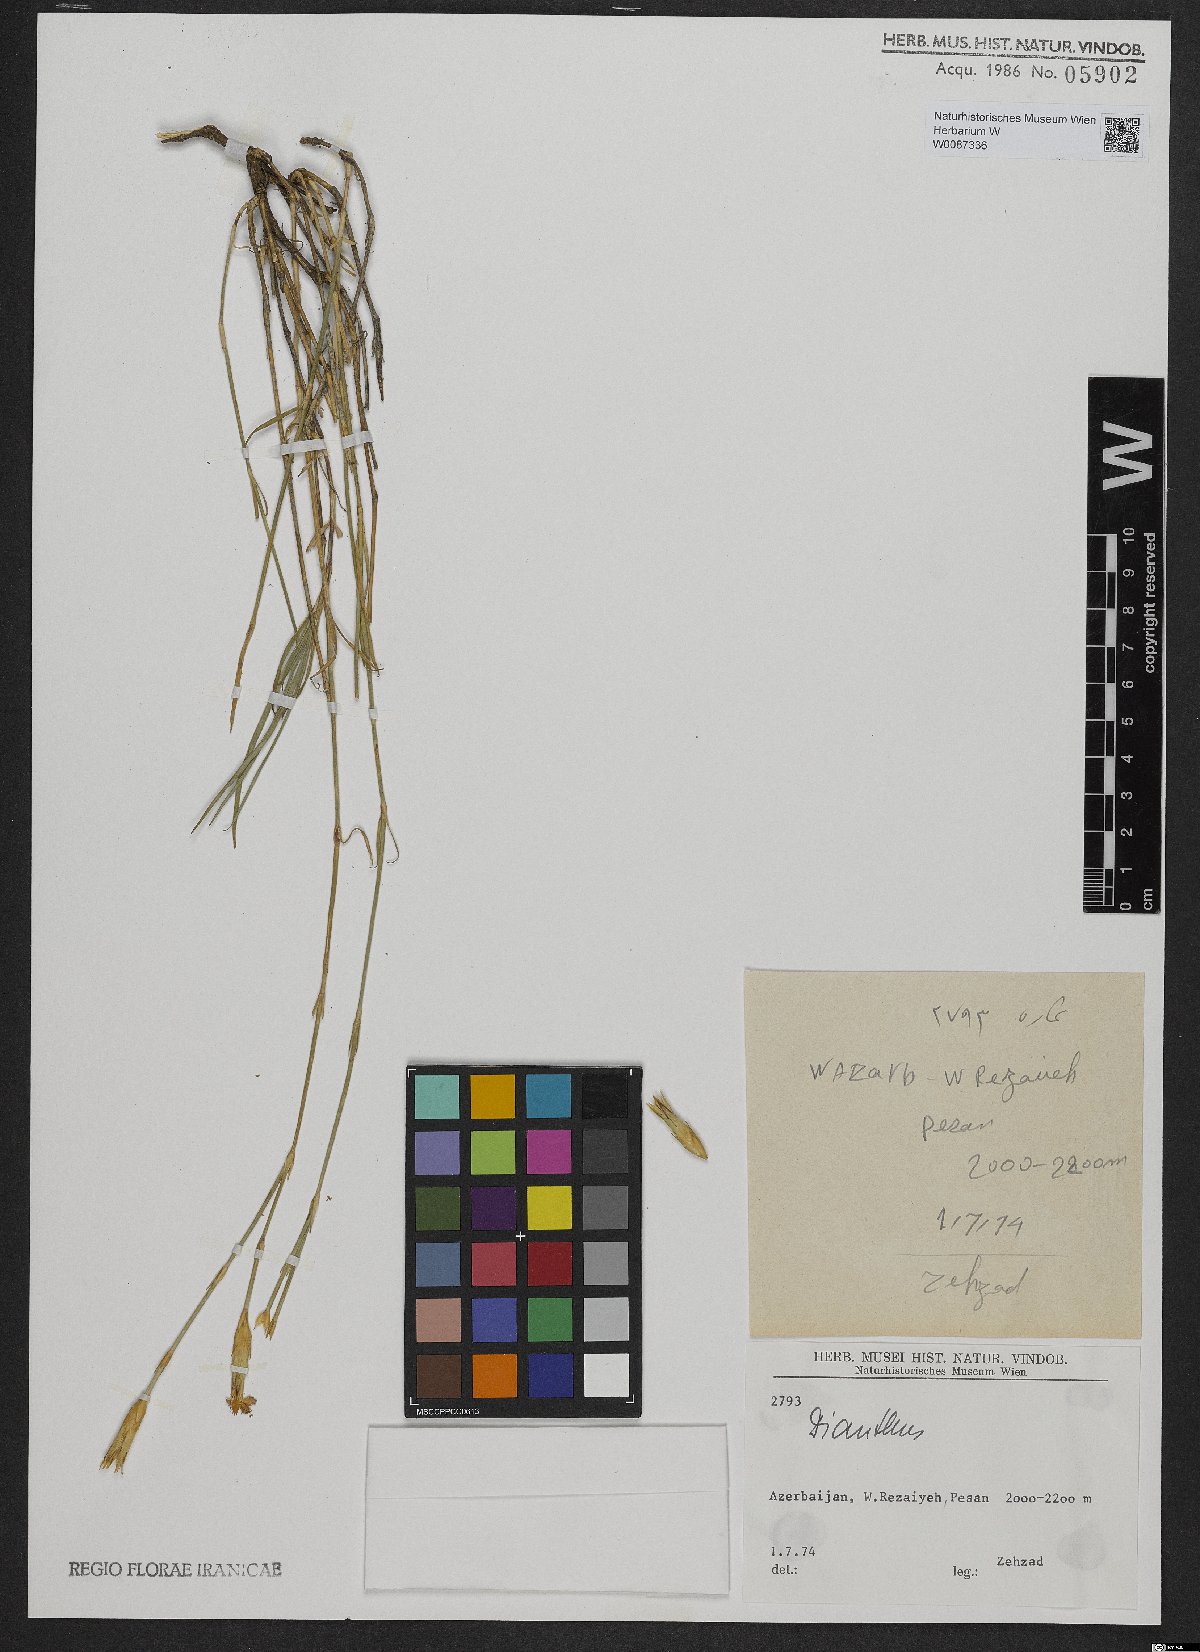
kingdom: Plantae
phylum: Tracheophyta
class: Magnoliopsida
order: Caryophyllales
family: Caryophyllaceae
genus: Dianthus
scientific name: Dianthus
